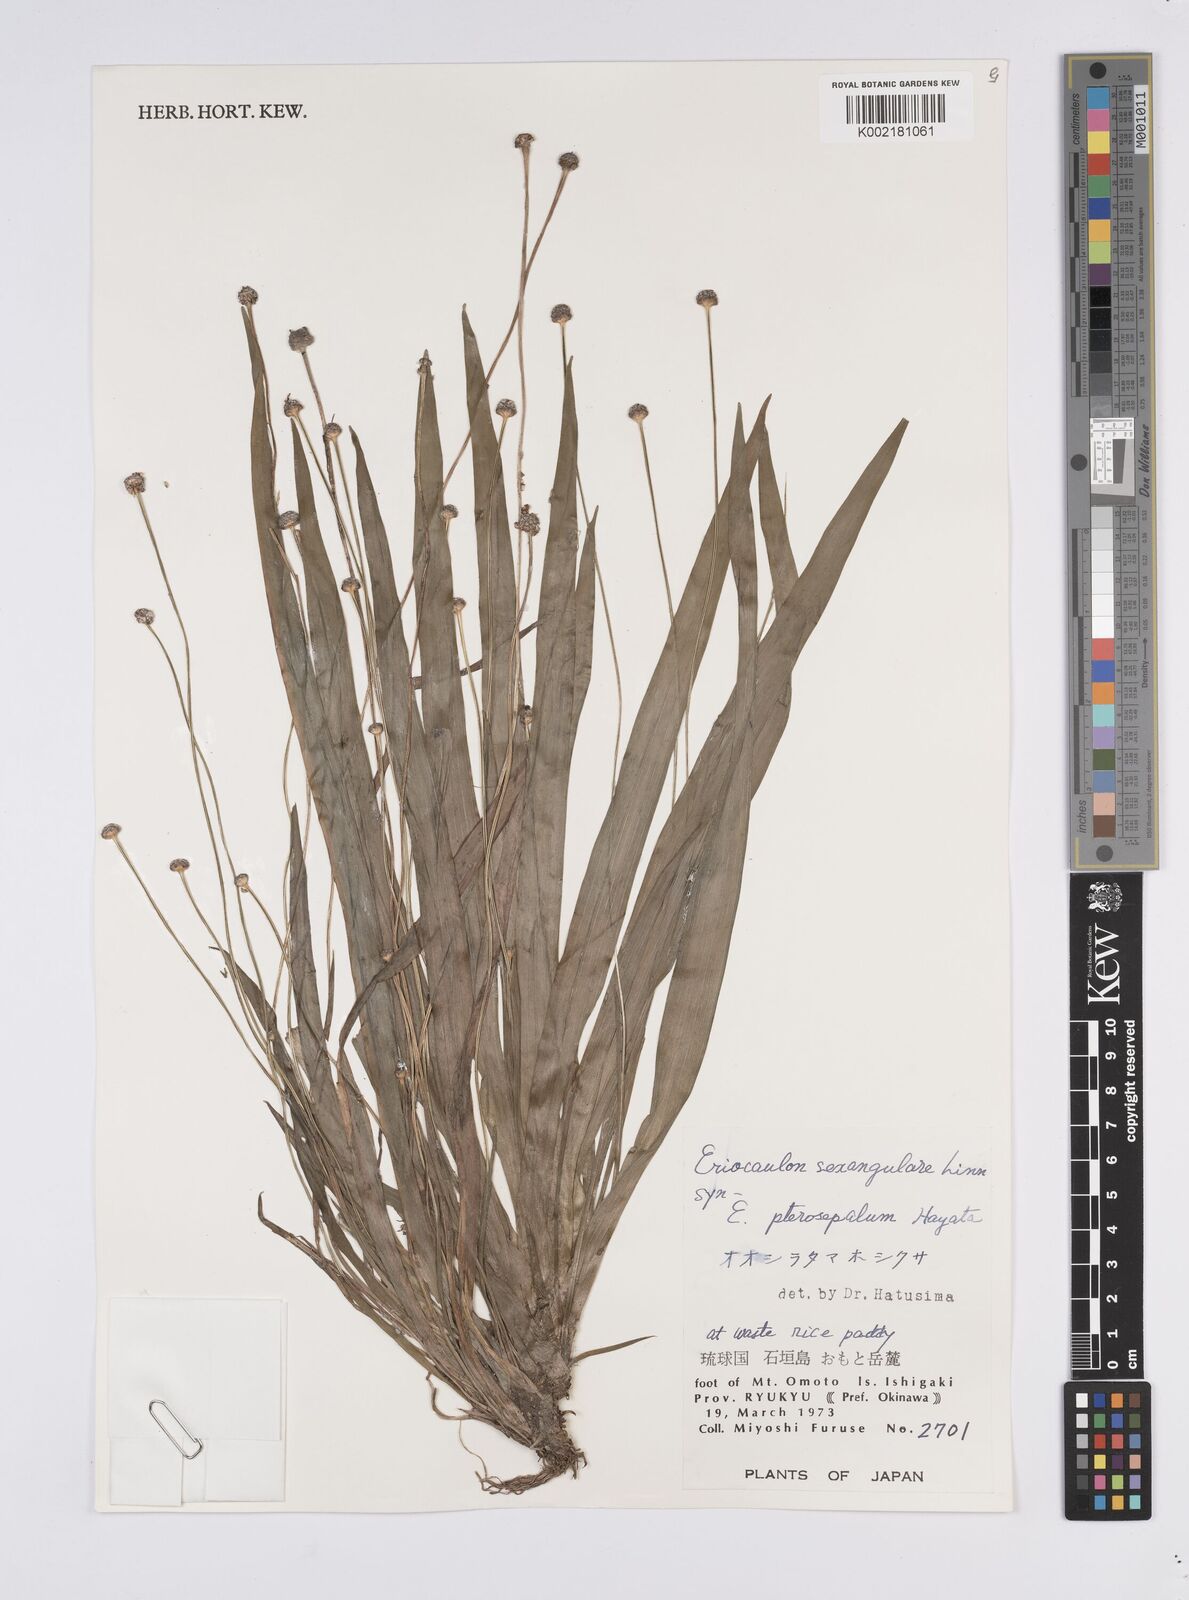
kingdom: Plantae
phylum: Tracheophyta
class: Liliopsida
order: Poales
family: Eriocaulaceae
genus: Eriocaulon
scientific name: Eriocaulon sexangulare
